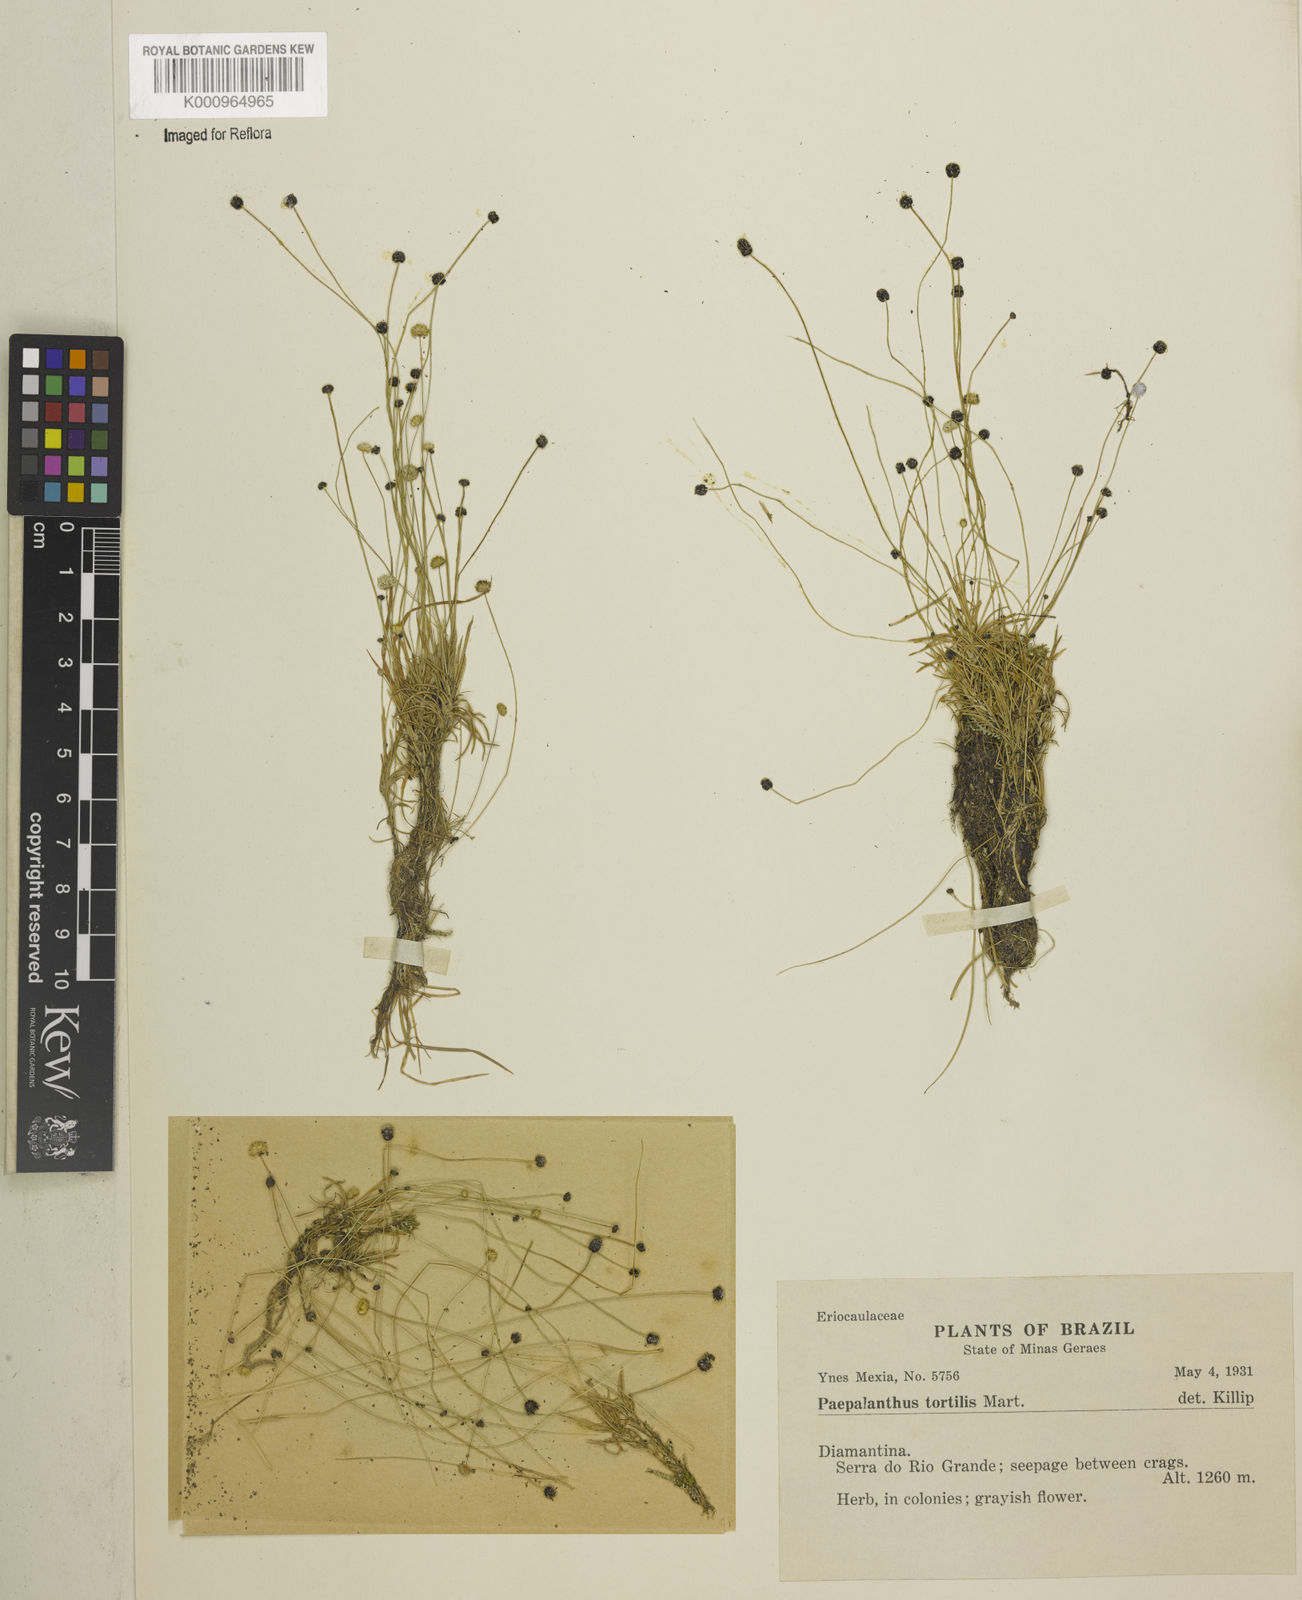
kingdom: Plantae
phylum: Tracheophyta
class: Liliopsida
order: Poales
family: Eriocaulaceae
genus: Paepalanthus
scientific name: Paepalanthus
